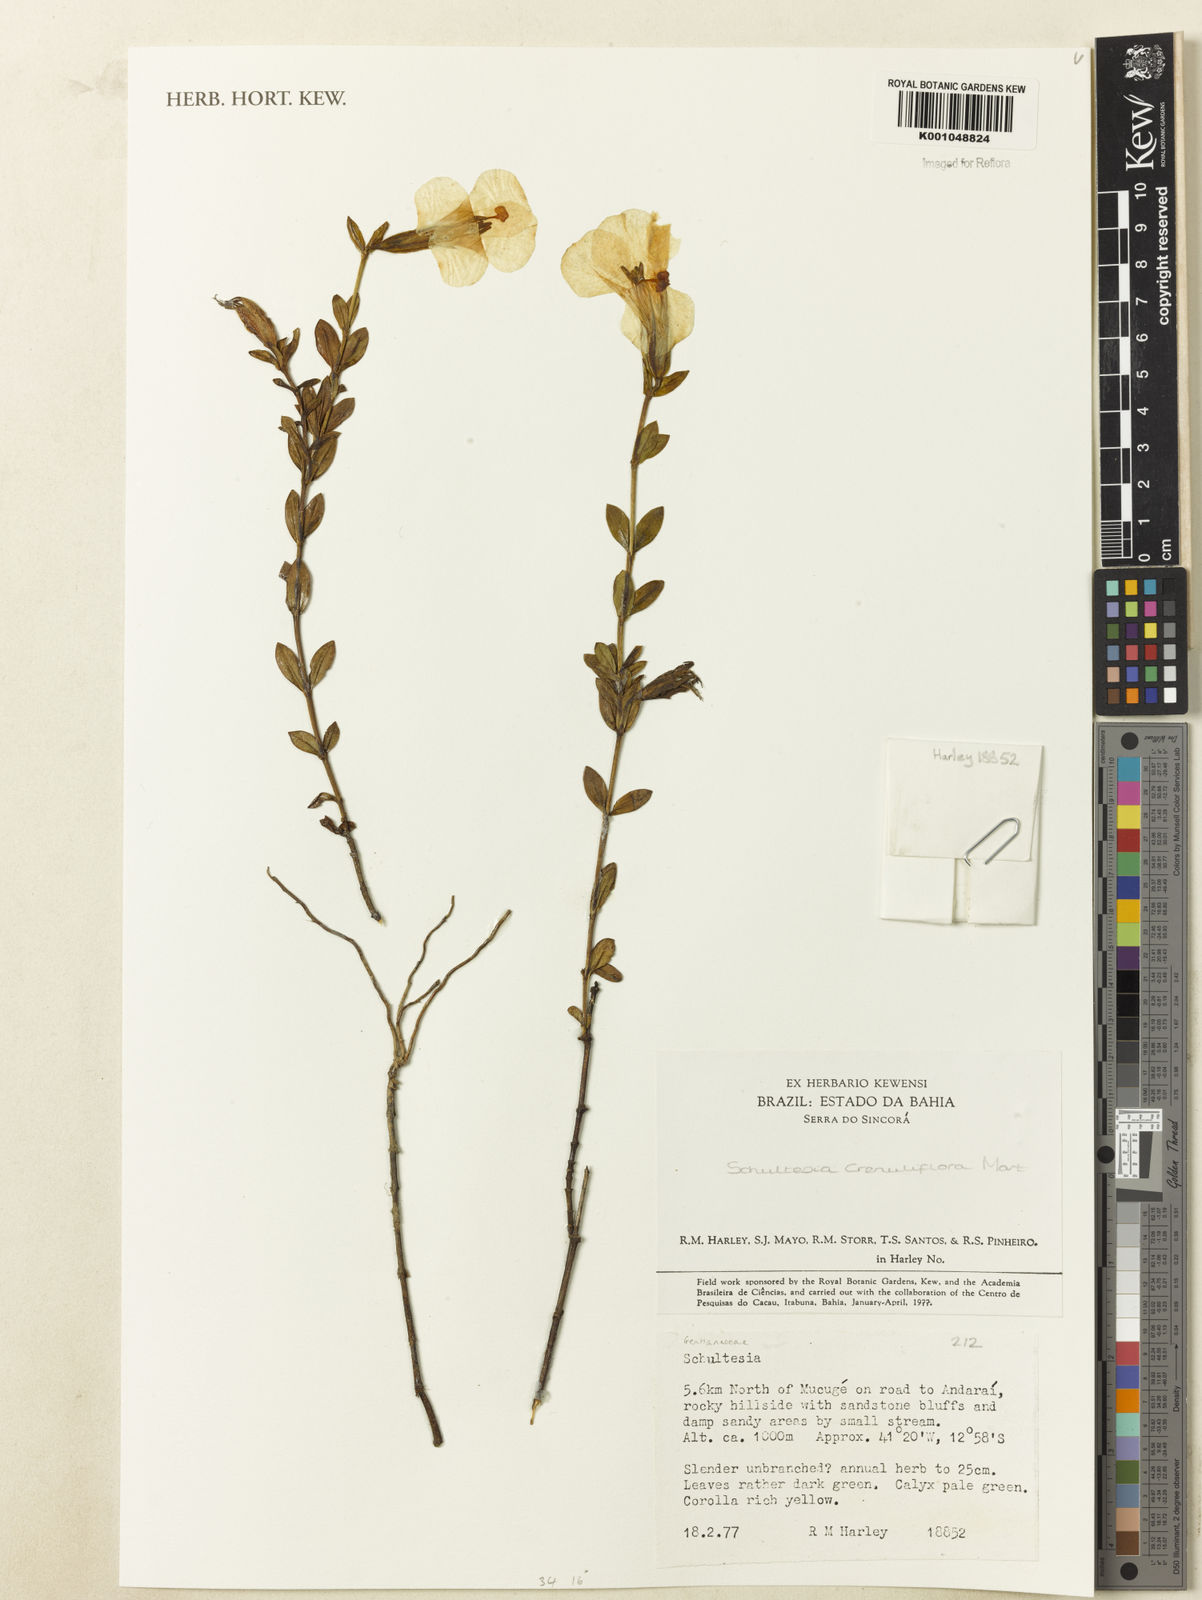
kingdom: Plantae
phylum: Tracheophyta
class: Magnoliopsida
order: Gentianales
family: Gentianaceae
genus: Schultesia
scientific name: Schultesia crenuliflora
